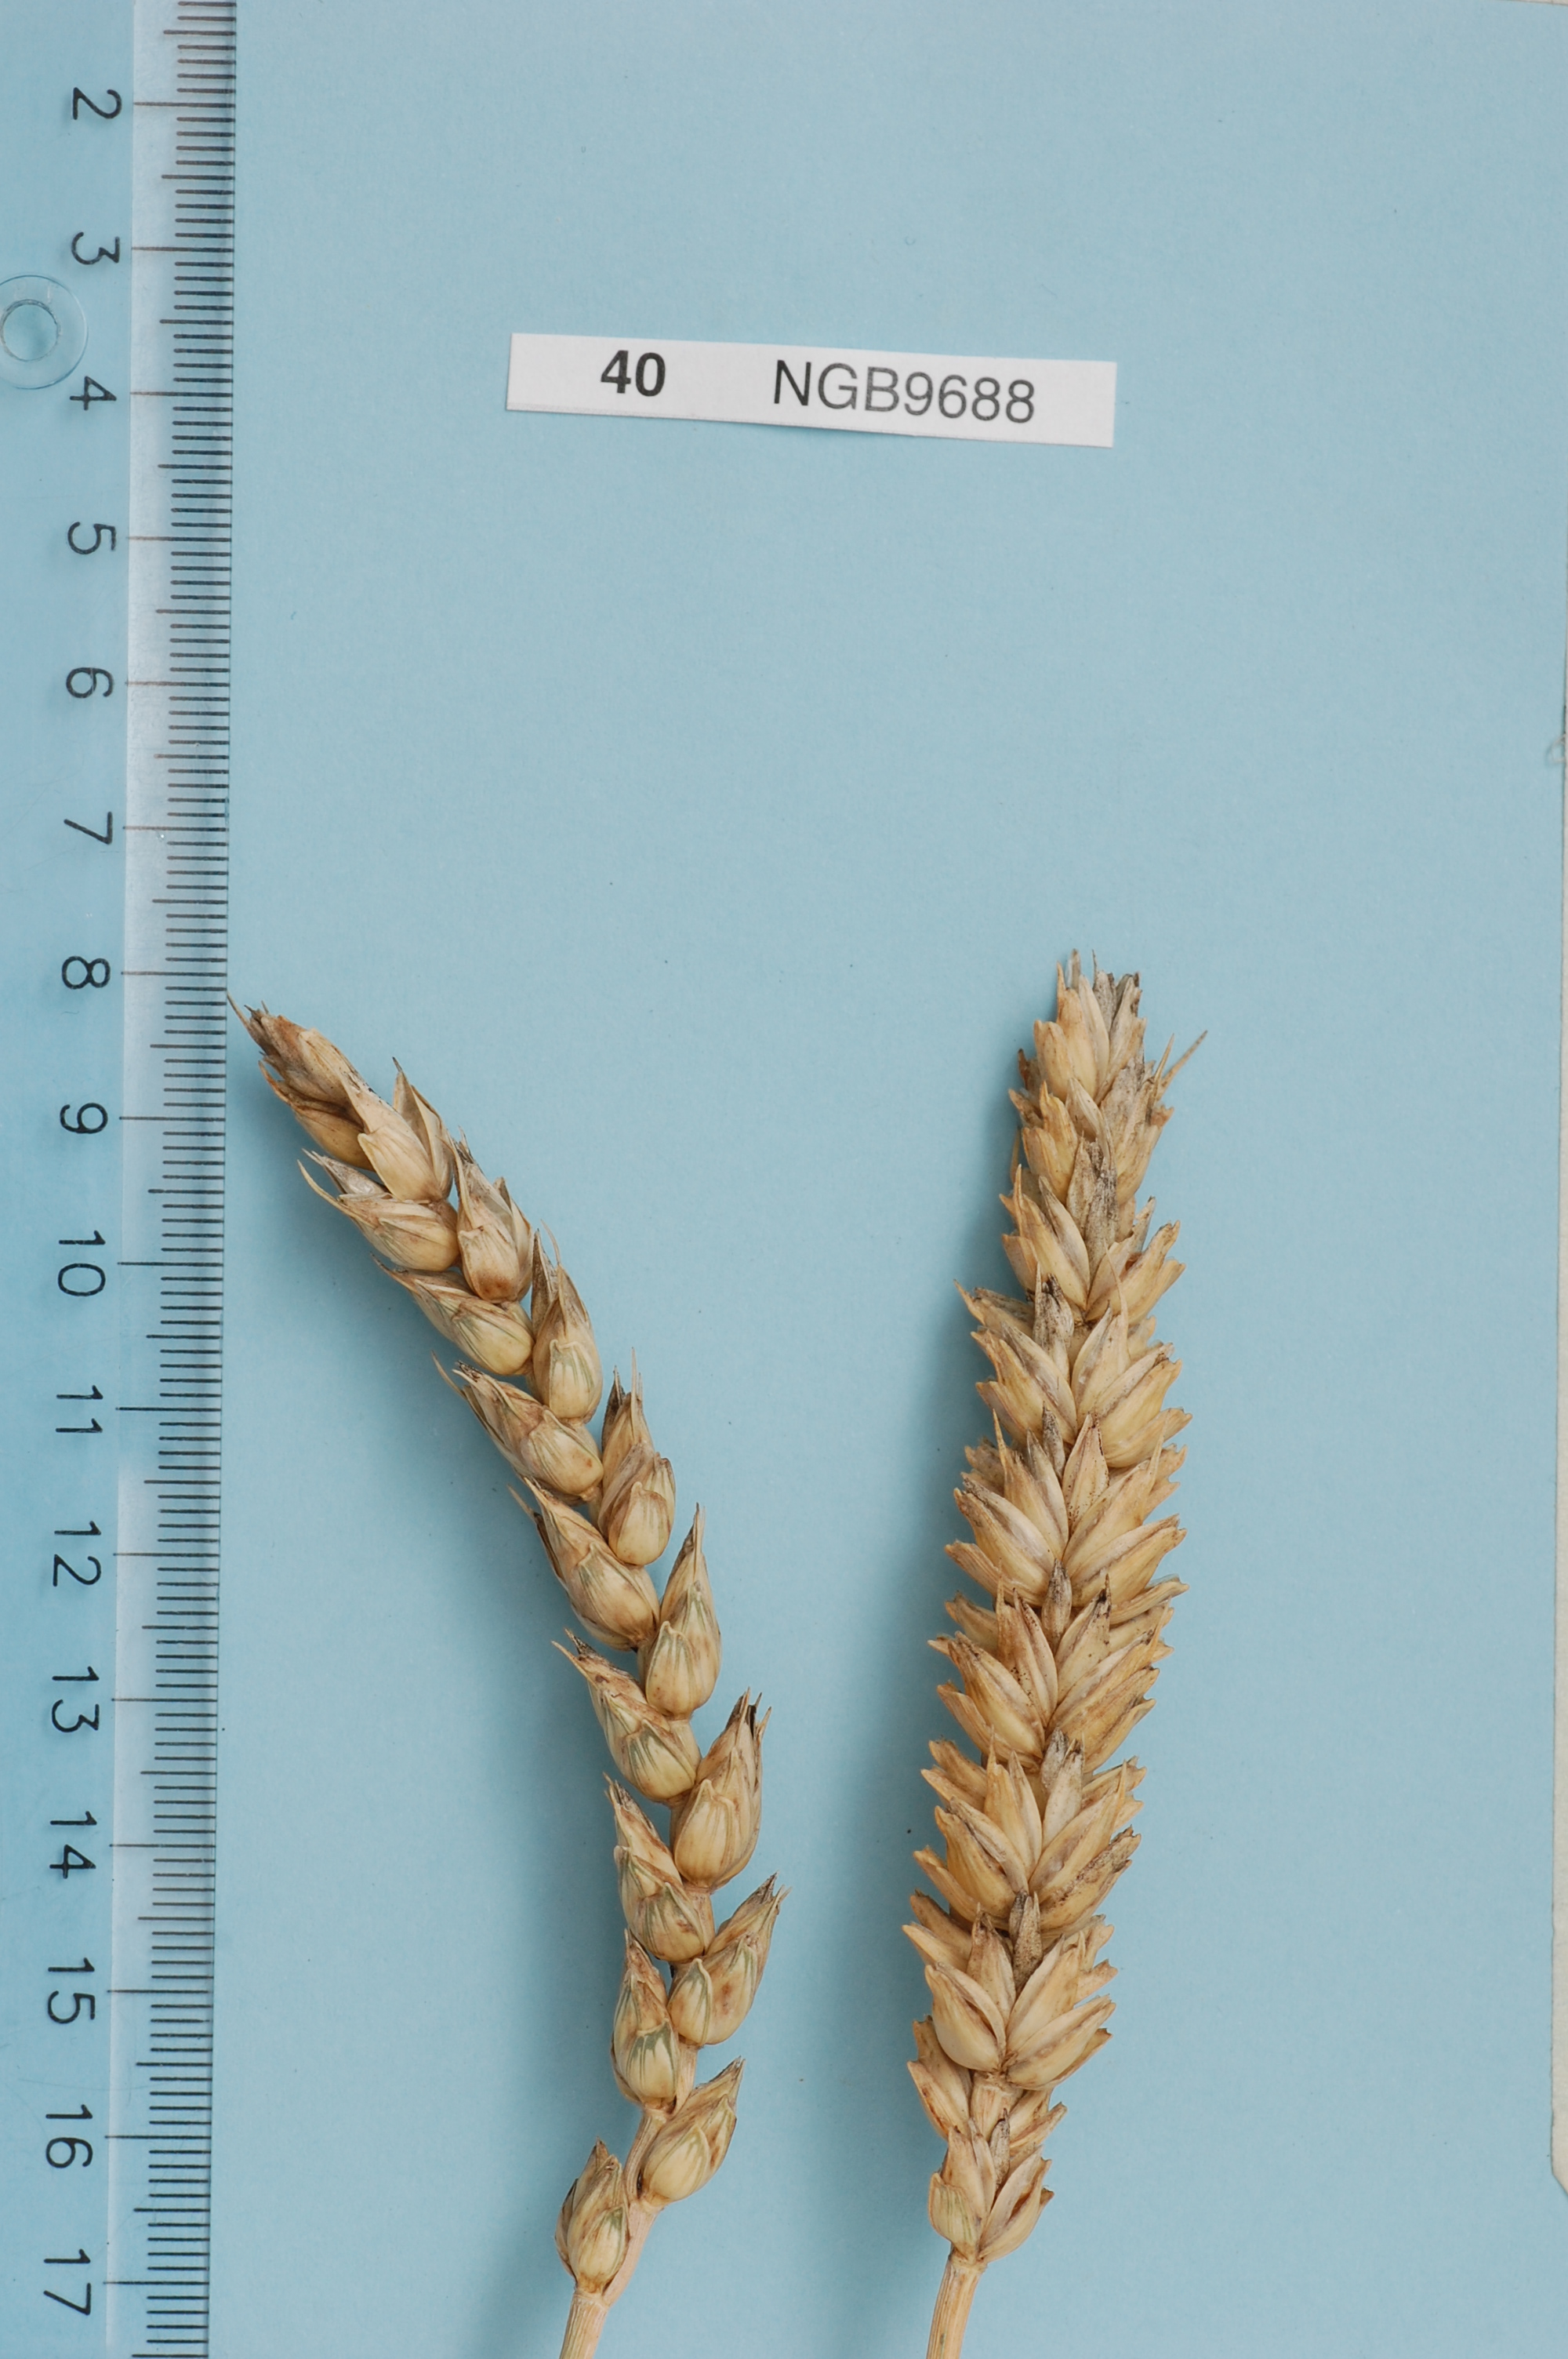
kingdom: Plantae
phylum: Tracheophyta
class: Liliopsida
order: Poales
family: Poaceae
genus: Triticum
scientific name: Triticum aestivum
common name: Common wheat
